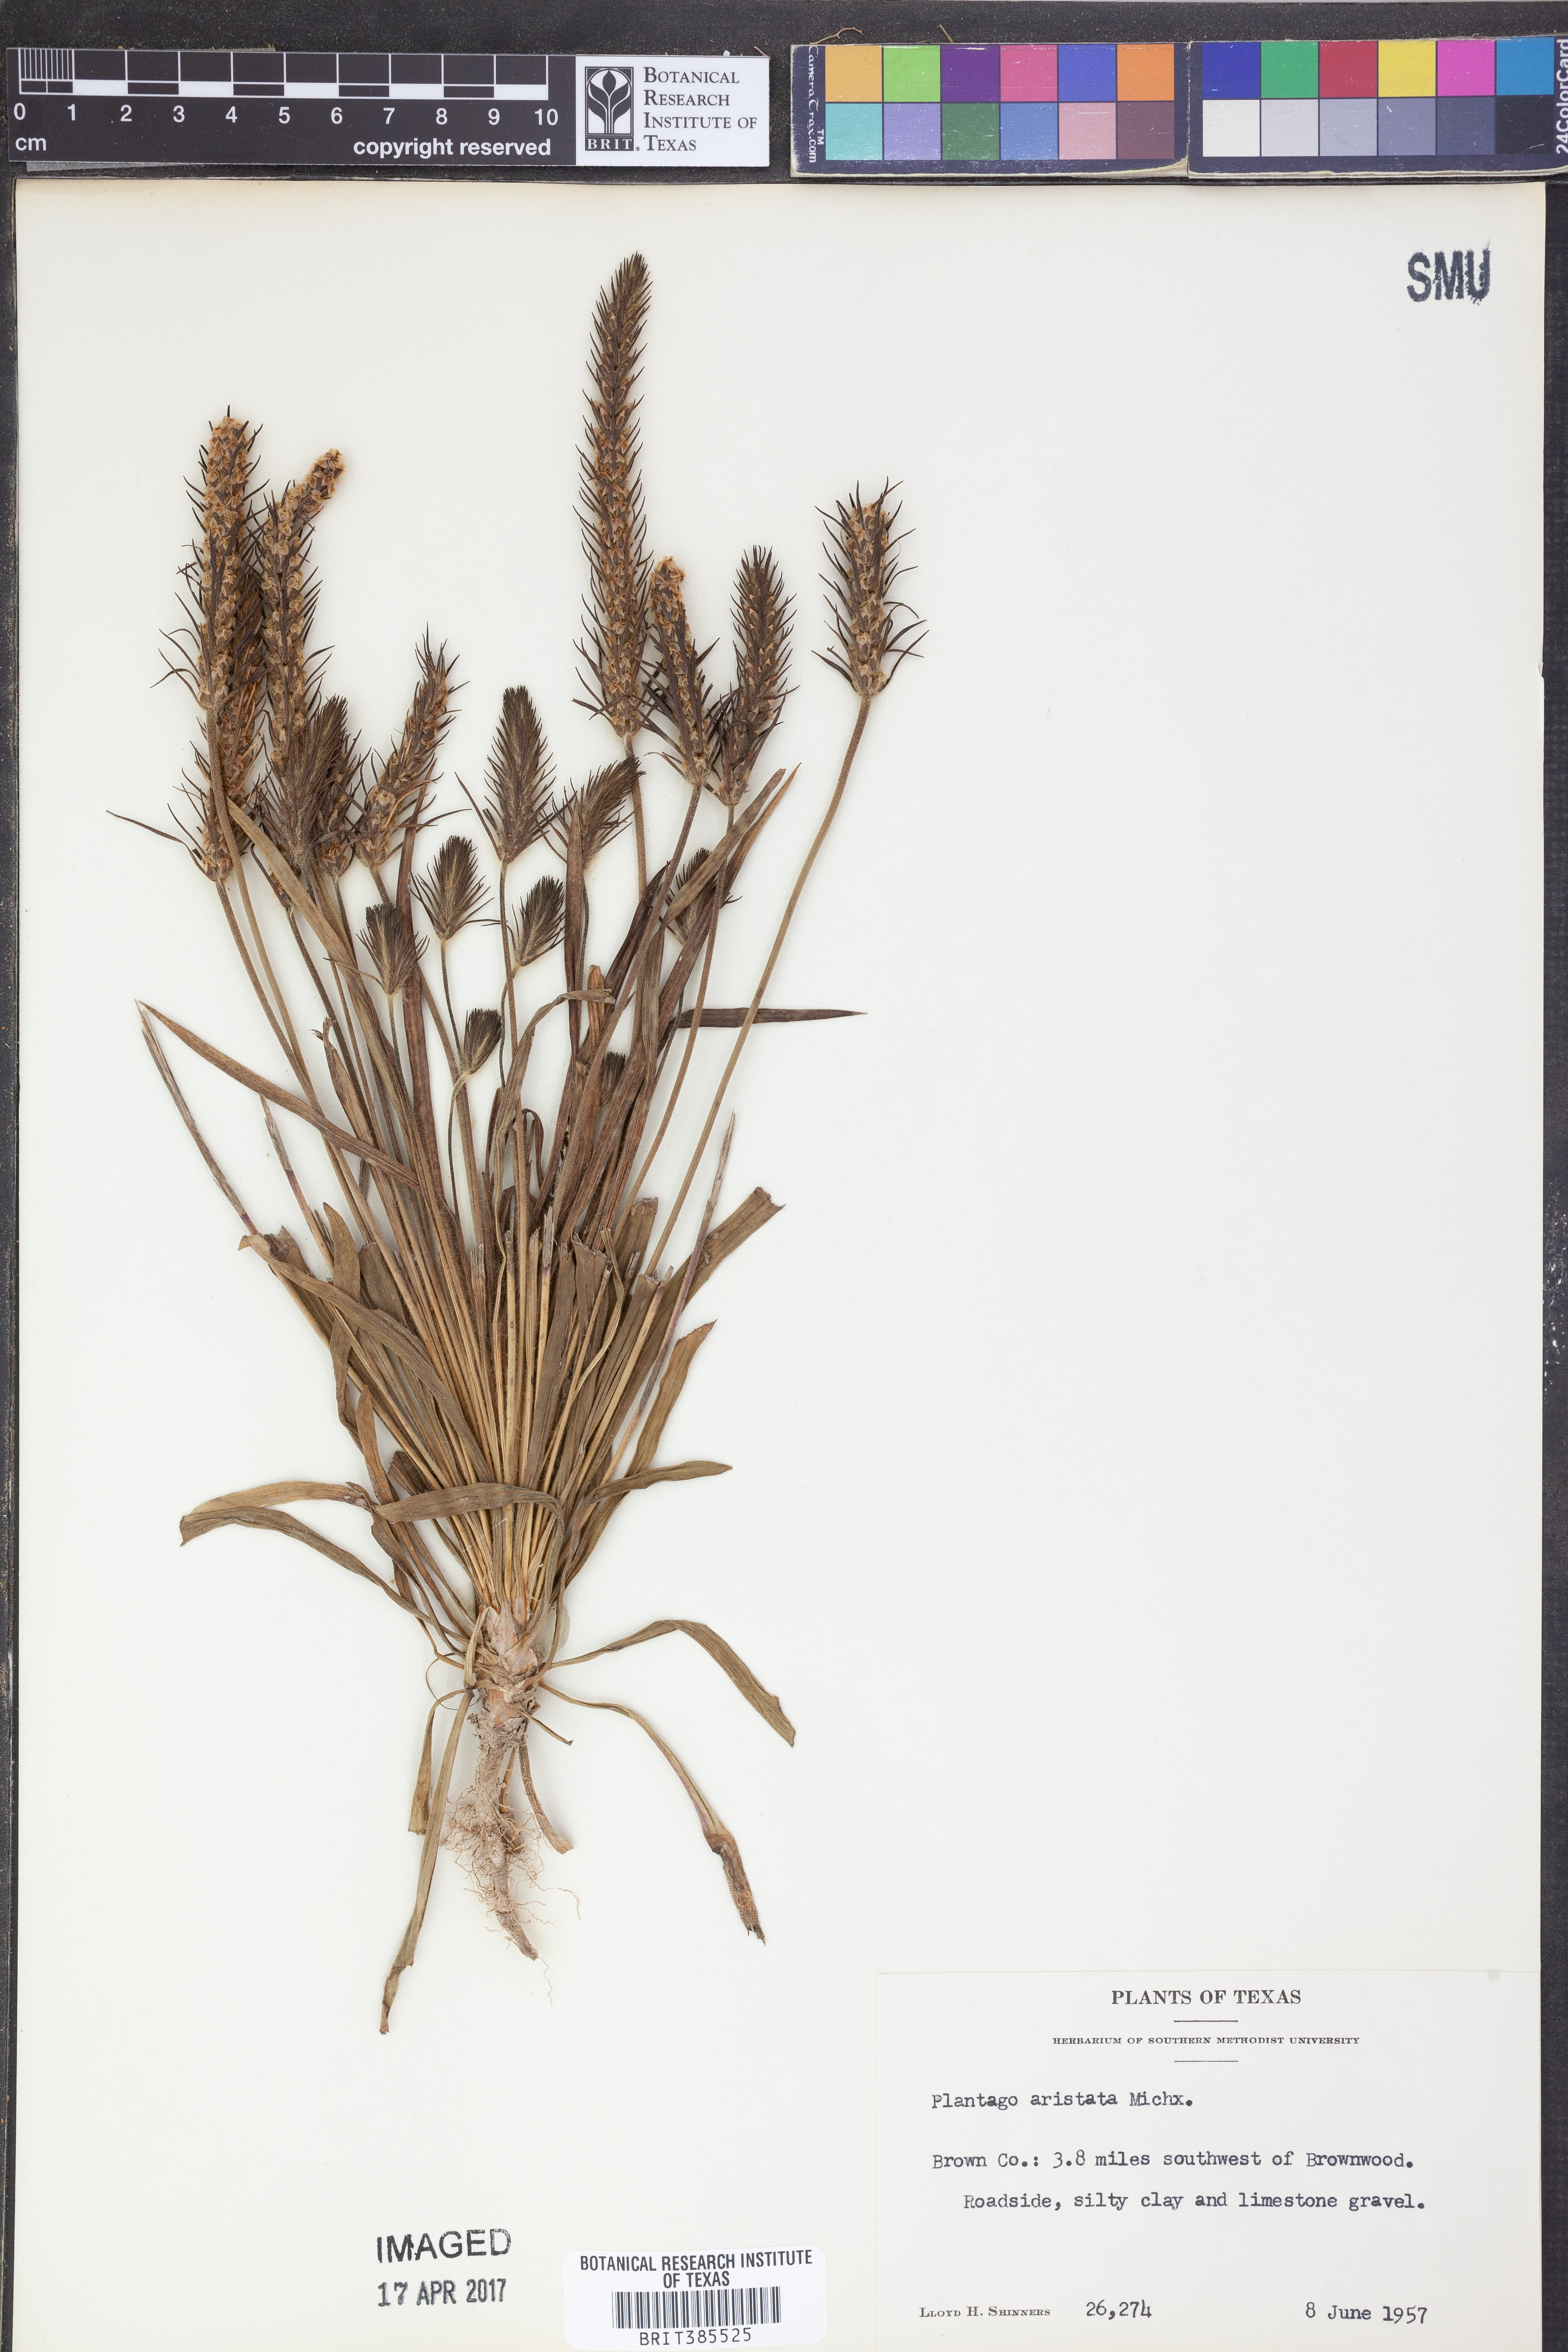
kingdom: Plantae
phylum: Tracheophyta
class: Magnoliopsida
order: Lamiales
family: Plantaginaceae
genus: Plantago
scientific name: Plantago aristata
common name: Bracted plantain
